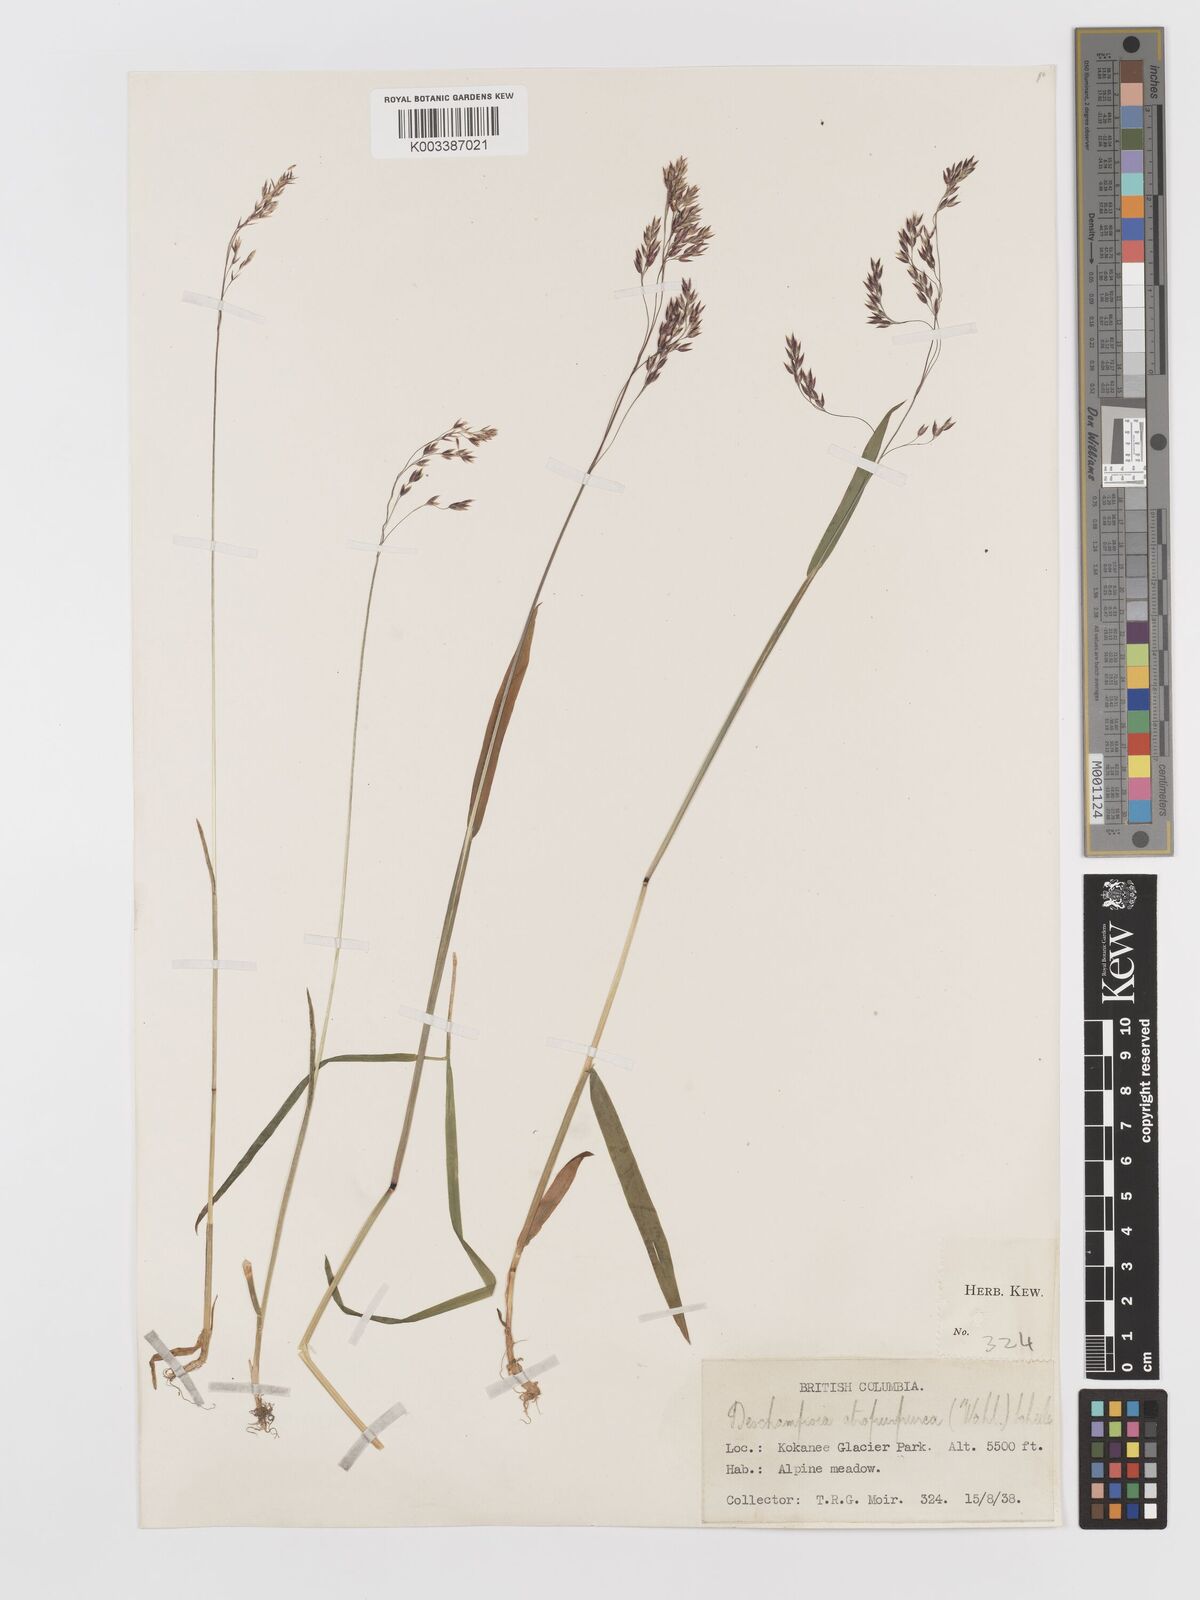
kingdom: Plantae
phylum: Tracheophyta
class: Liliopsida
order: Poales
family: Poaceae
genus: Vahlodea
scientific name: Vahlodea atropurpurea
